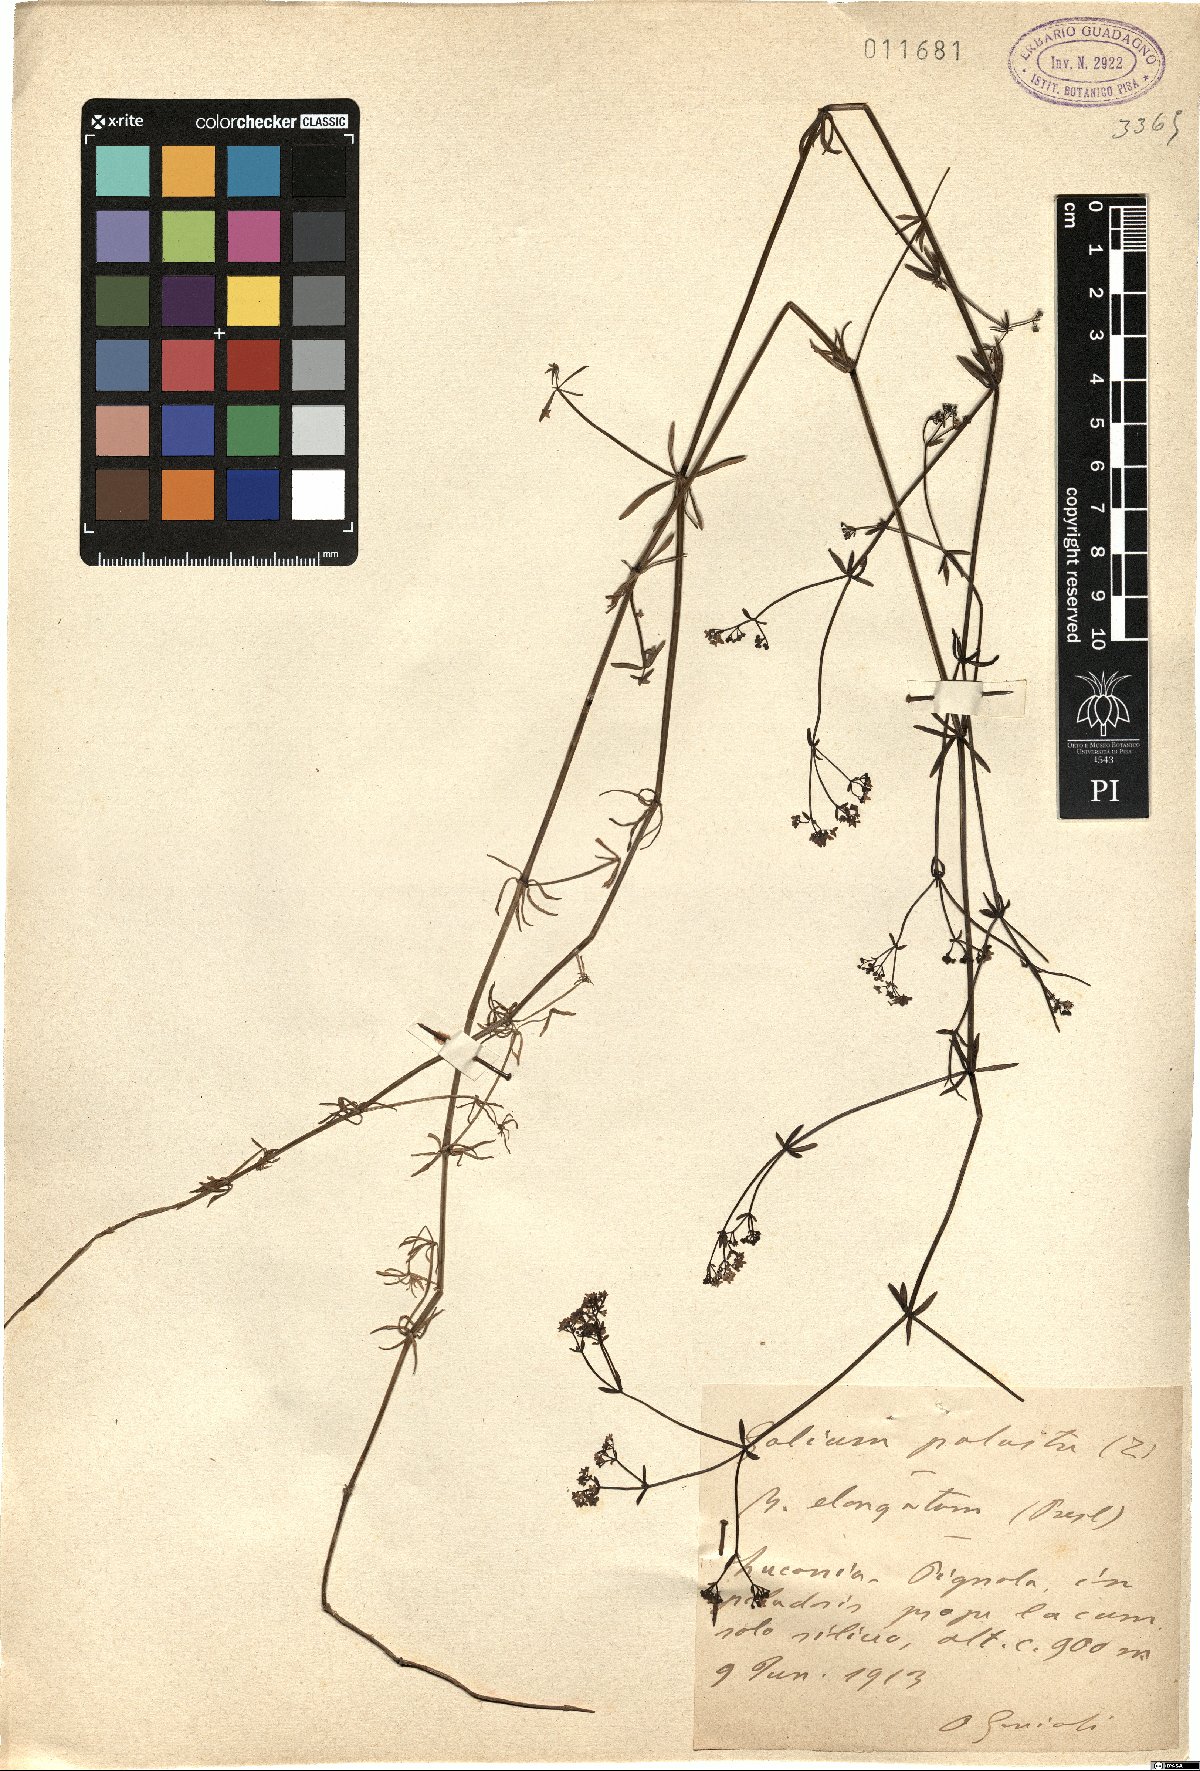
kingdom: Plantae
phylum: Tracheophyta
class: Magnoliopsida
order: Gentianales
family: Rubiaceae
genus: Galium
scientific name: Galium elongatum
